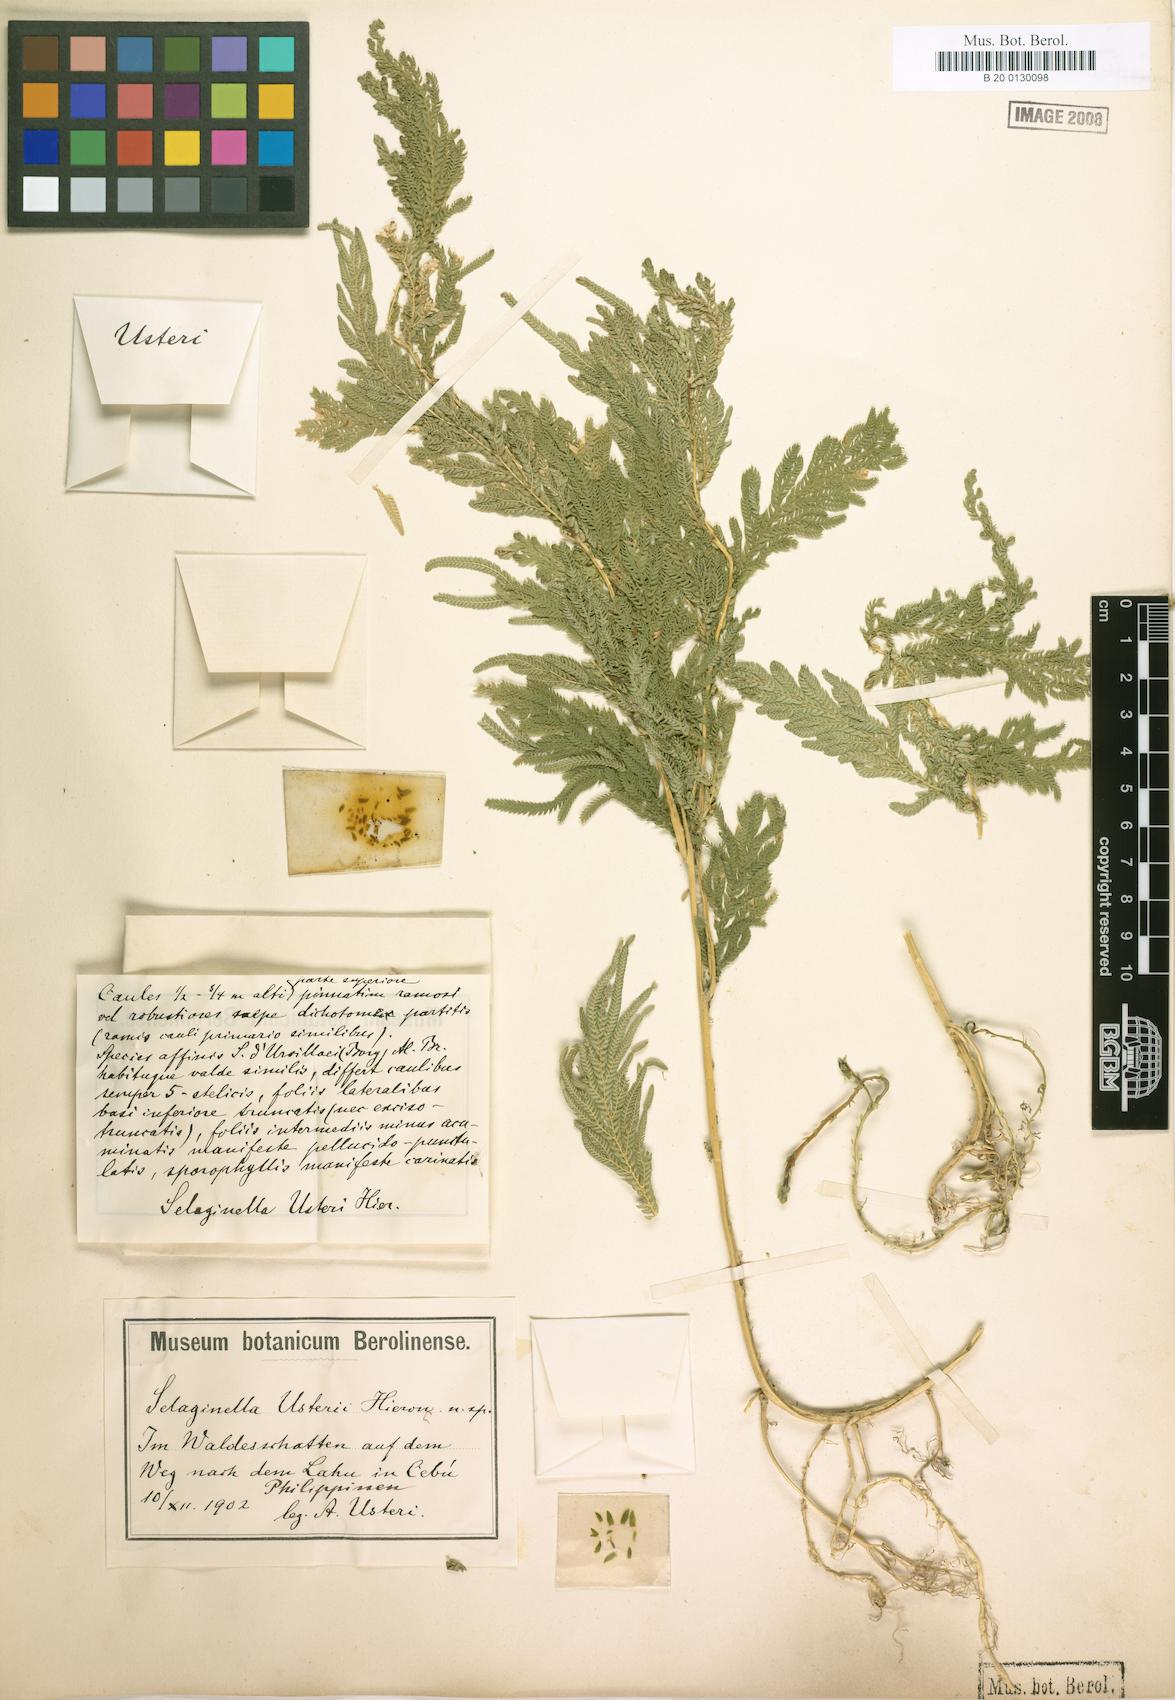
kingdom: Plantae
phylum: Tracheophyta
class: Lycopodiopsida
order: Selaginellales
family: Selaginellaceae
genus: Selaginella
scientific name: Selaginella engleri
